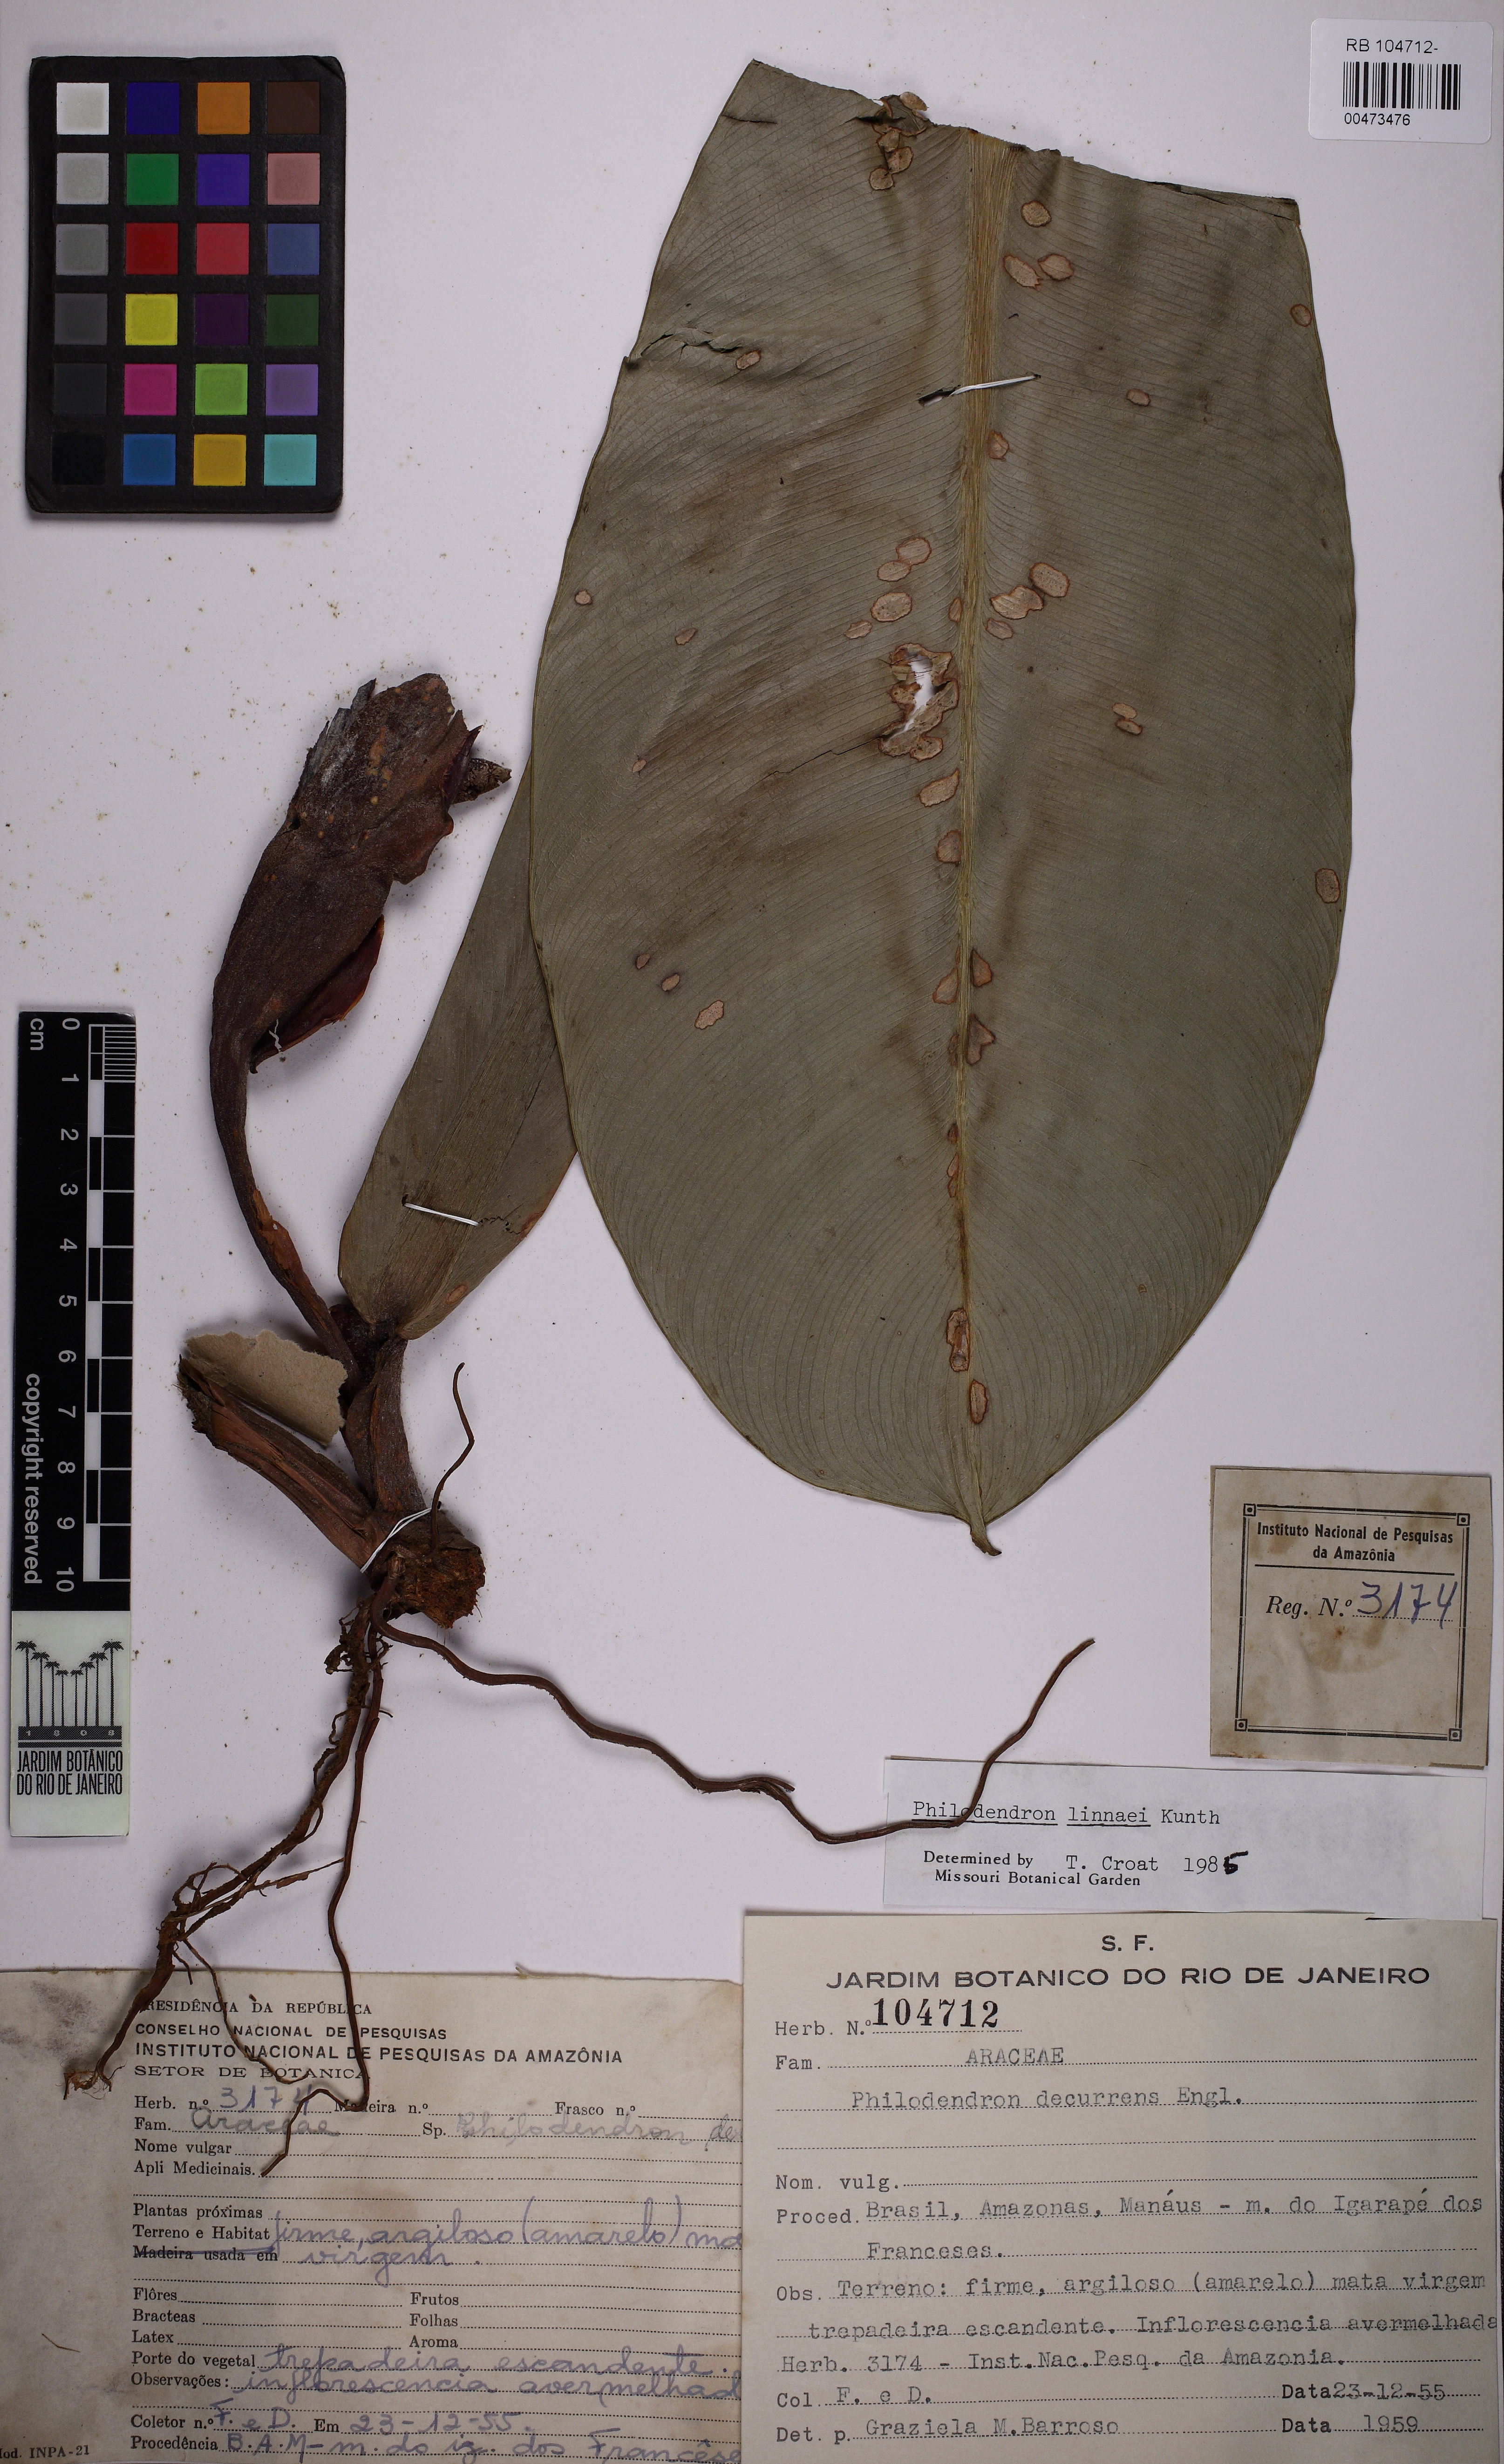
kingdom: Plantae
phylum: Tracheophyta
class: Liliopsida
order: Alismatales
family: Araceae
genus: Philodendron
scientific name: Philodendron linnaei
